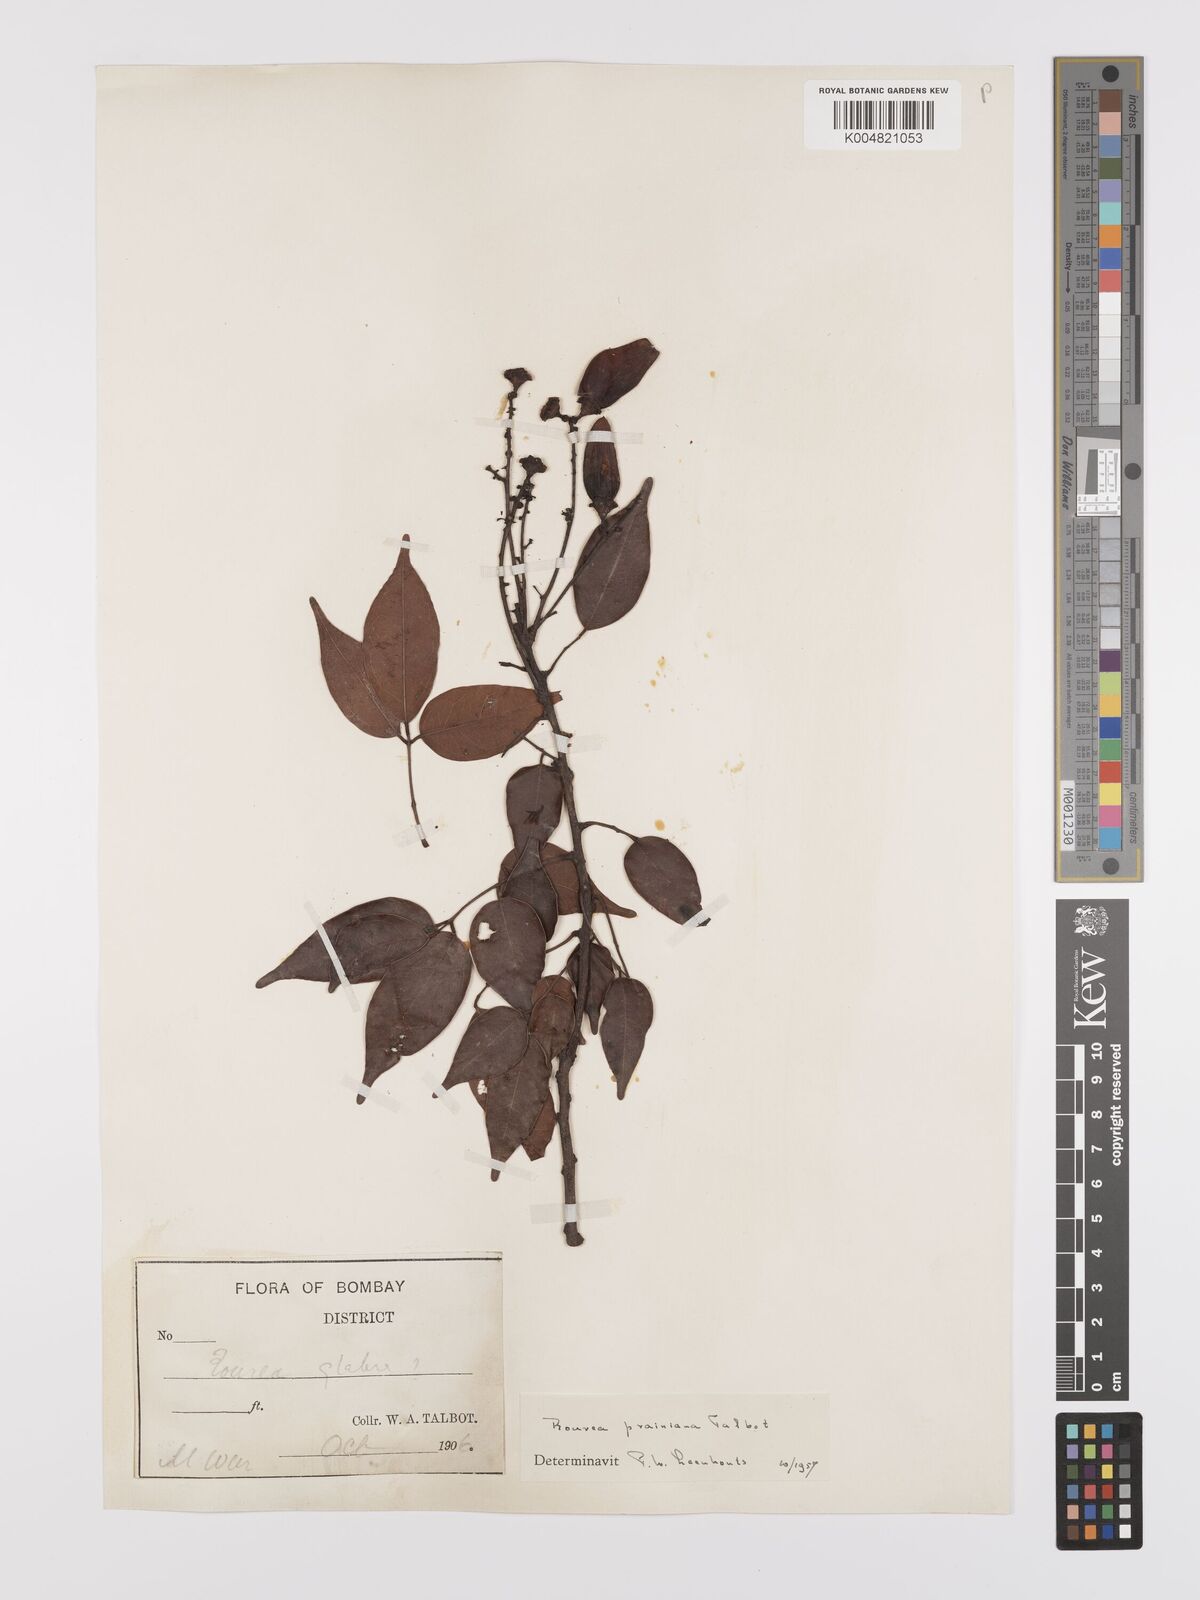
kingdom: Plantae
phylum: Tracheophyta
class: Magnoliopsida
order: Oxalidales
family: Connaraceae
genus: Rourea
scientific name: Rourea prainiana
